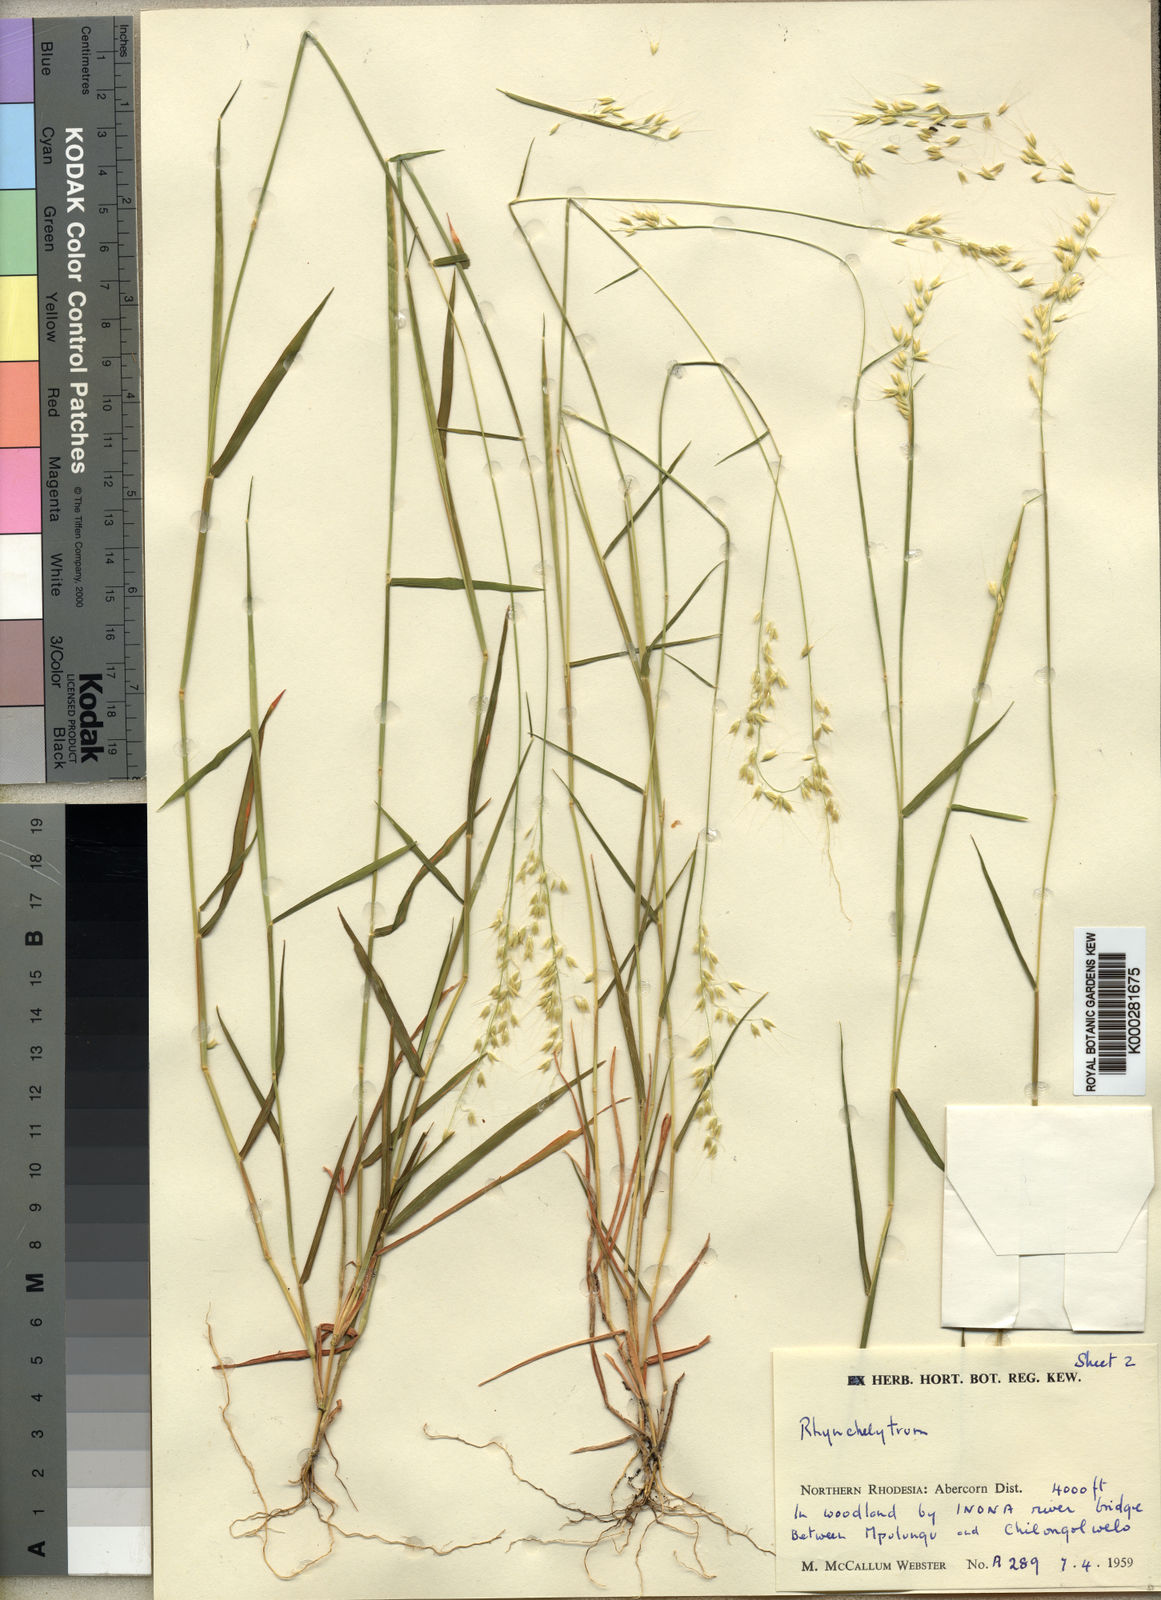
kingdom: Plantae
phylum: Tracheophyta
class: Liliopsida
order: Poales
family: Poaceae
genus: Melinis
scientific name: Melinis kallimorpha
